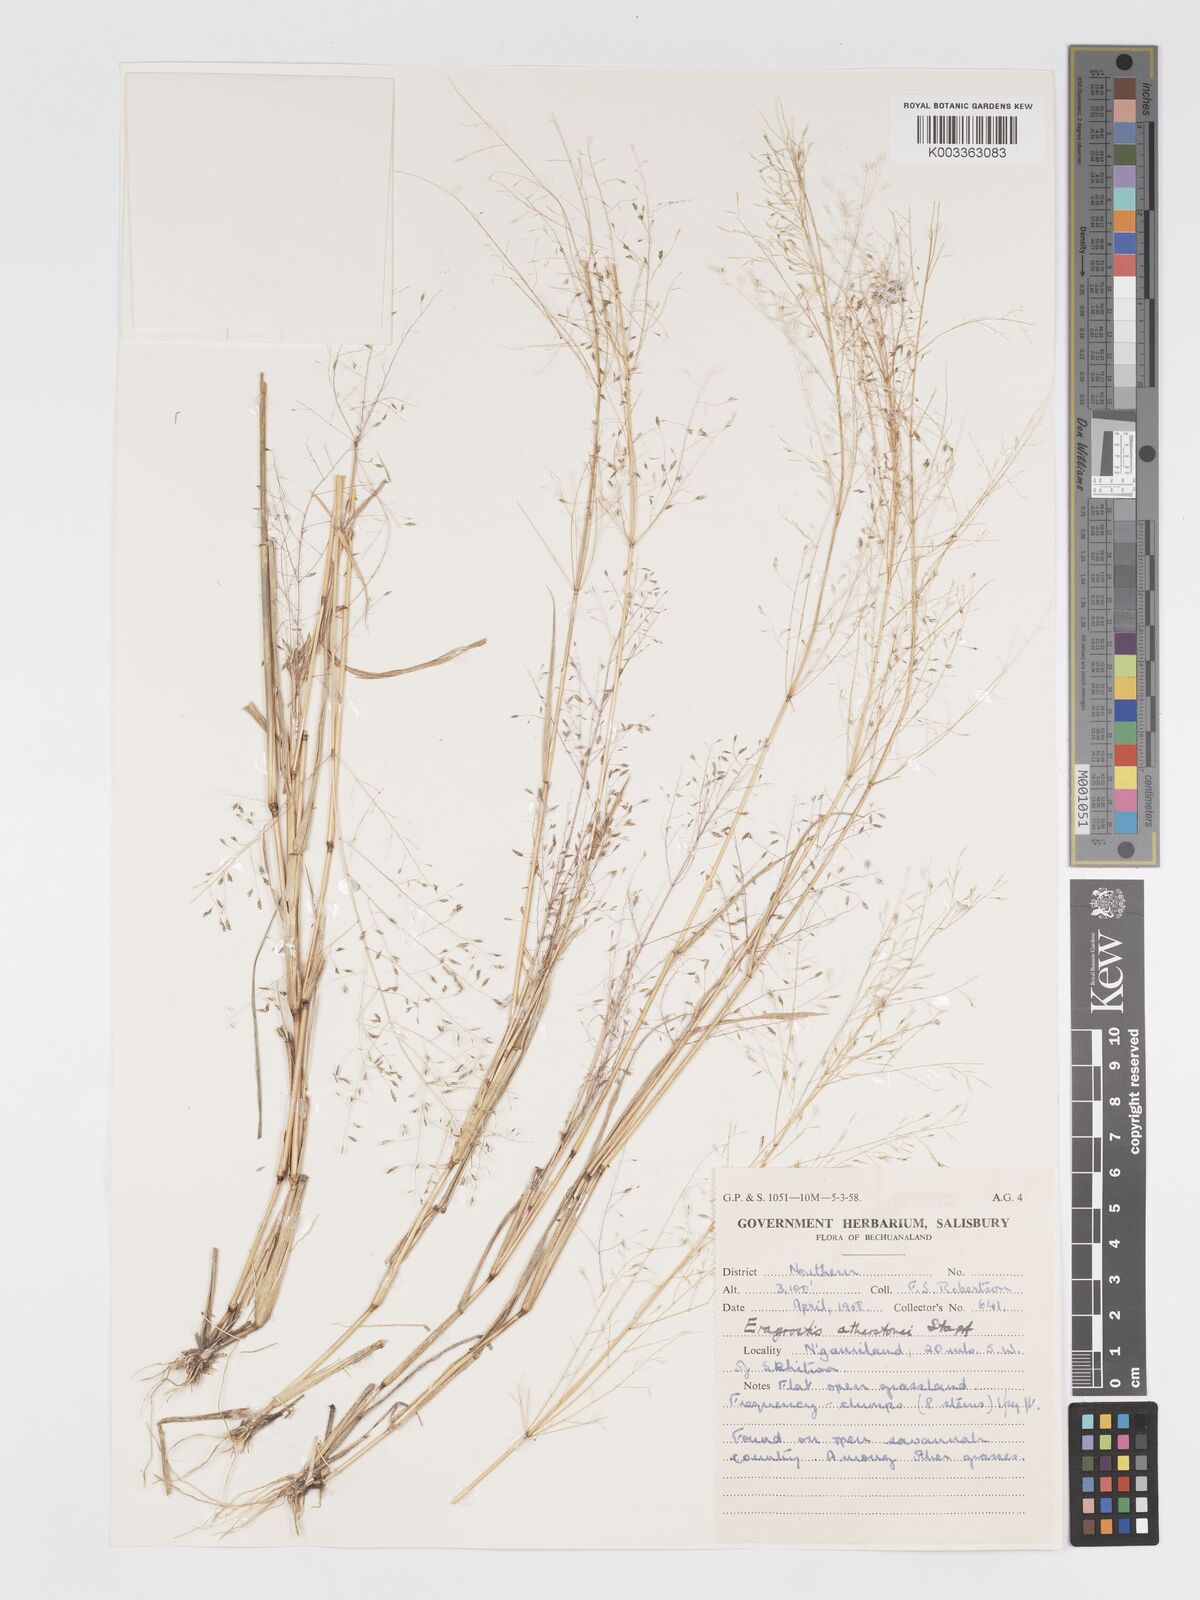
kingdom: Plantae
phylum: Tracheophyta
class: Liliopsida
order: Poales
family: Poaceae
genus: Eragrostis
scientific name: Eragrostis cylindriflora
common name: Cylinderflower lovegrass
